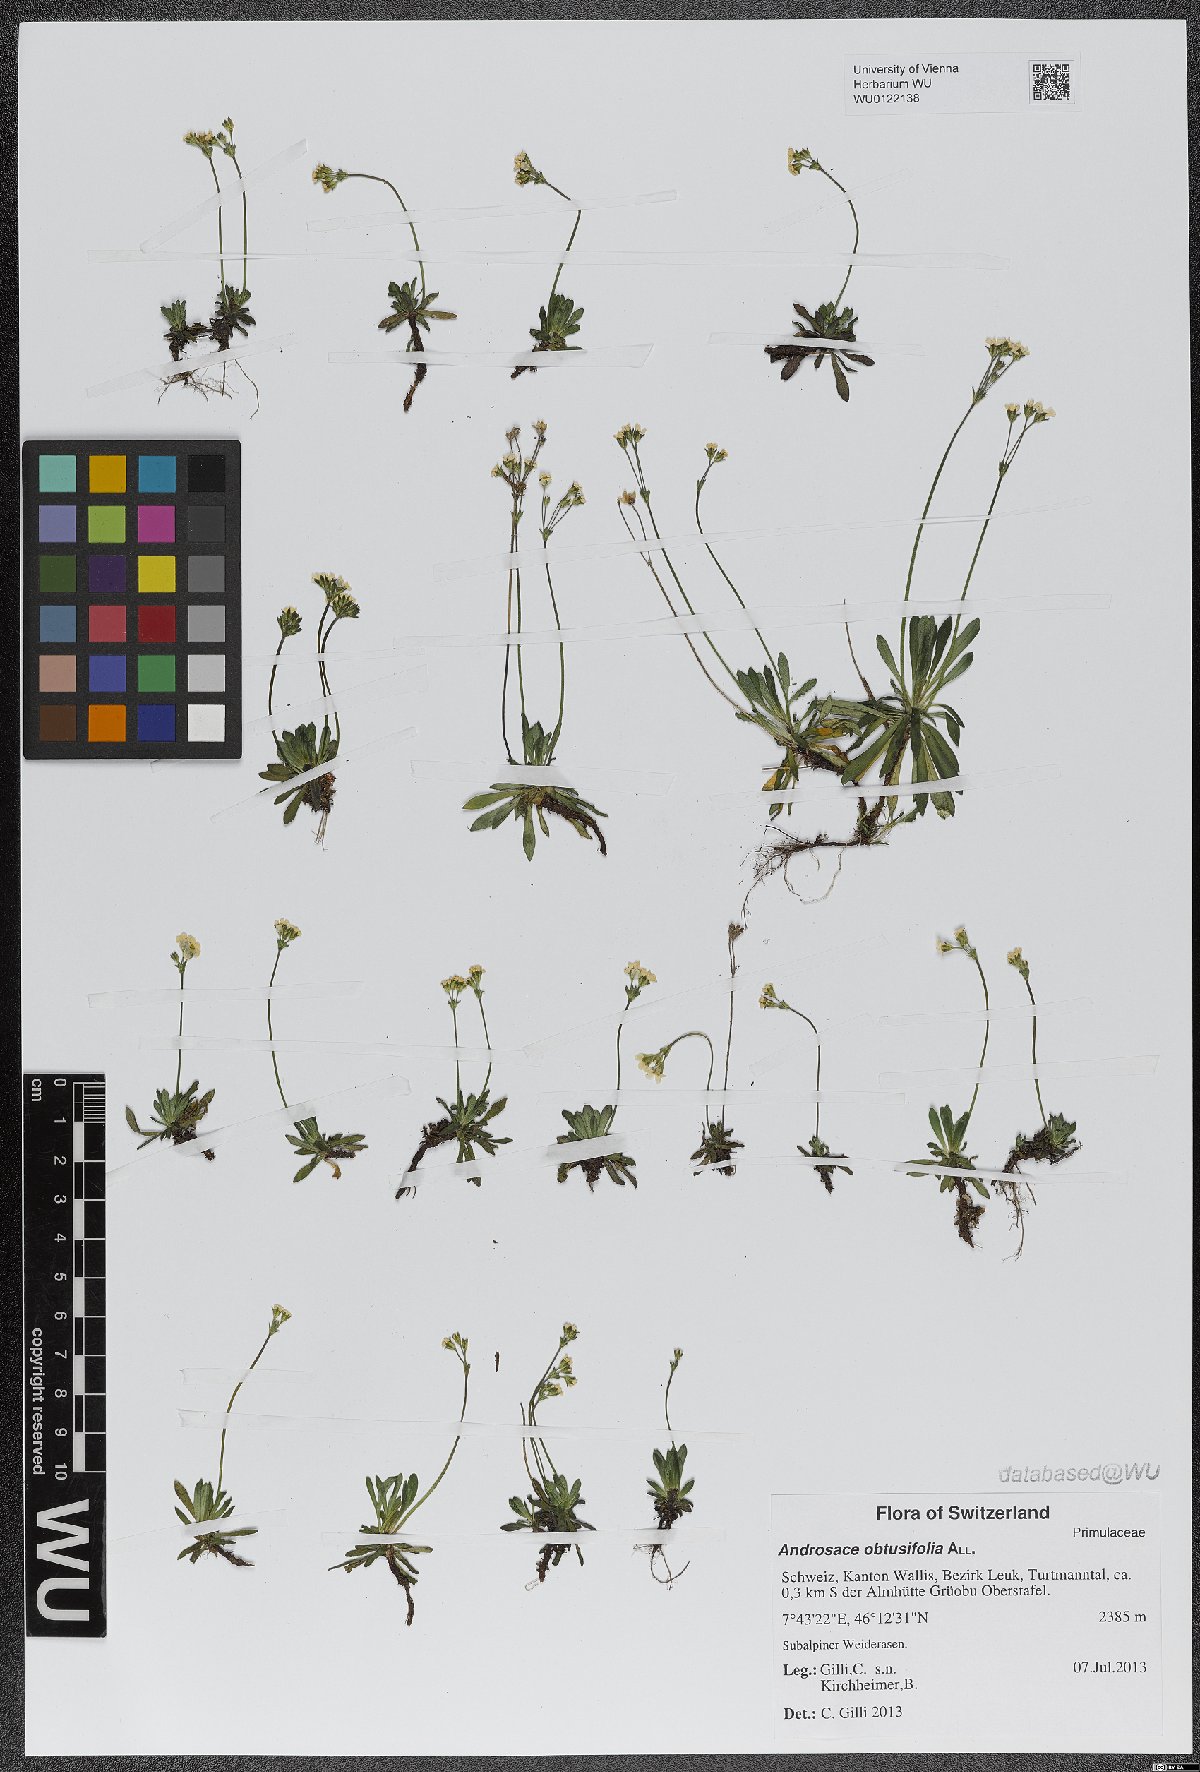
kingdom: Plantae
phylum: Tracheophyta
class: Magnoliopsida
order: Ericales
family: Primulaceae
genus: Androsace
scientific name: Androsace obtusifolia
